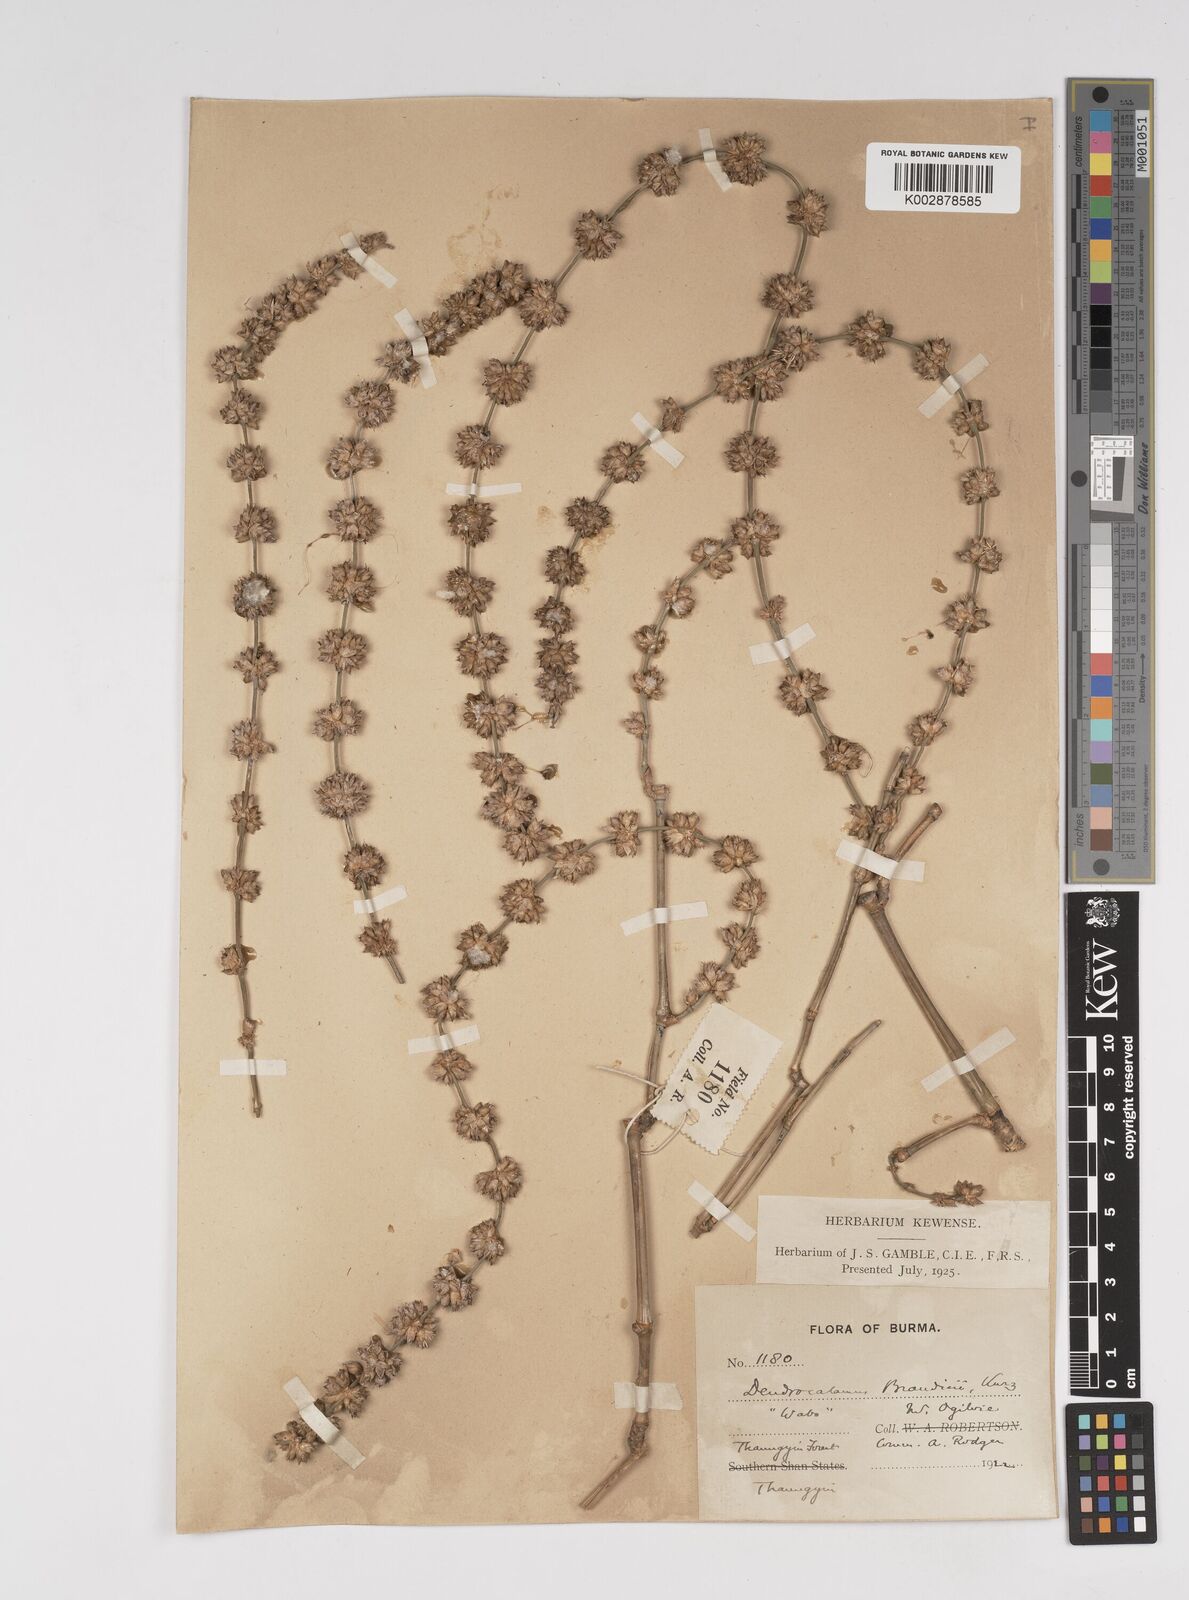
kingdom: Plantae
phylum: Tracheophyta
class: Liliopsida
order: Poales
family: Poaceae
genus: Dendrocalamus
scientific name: Dendrocalamus brandisii
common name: Velvetleaf bamboo
